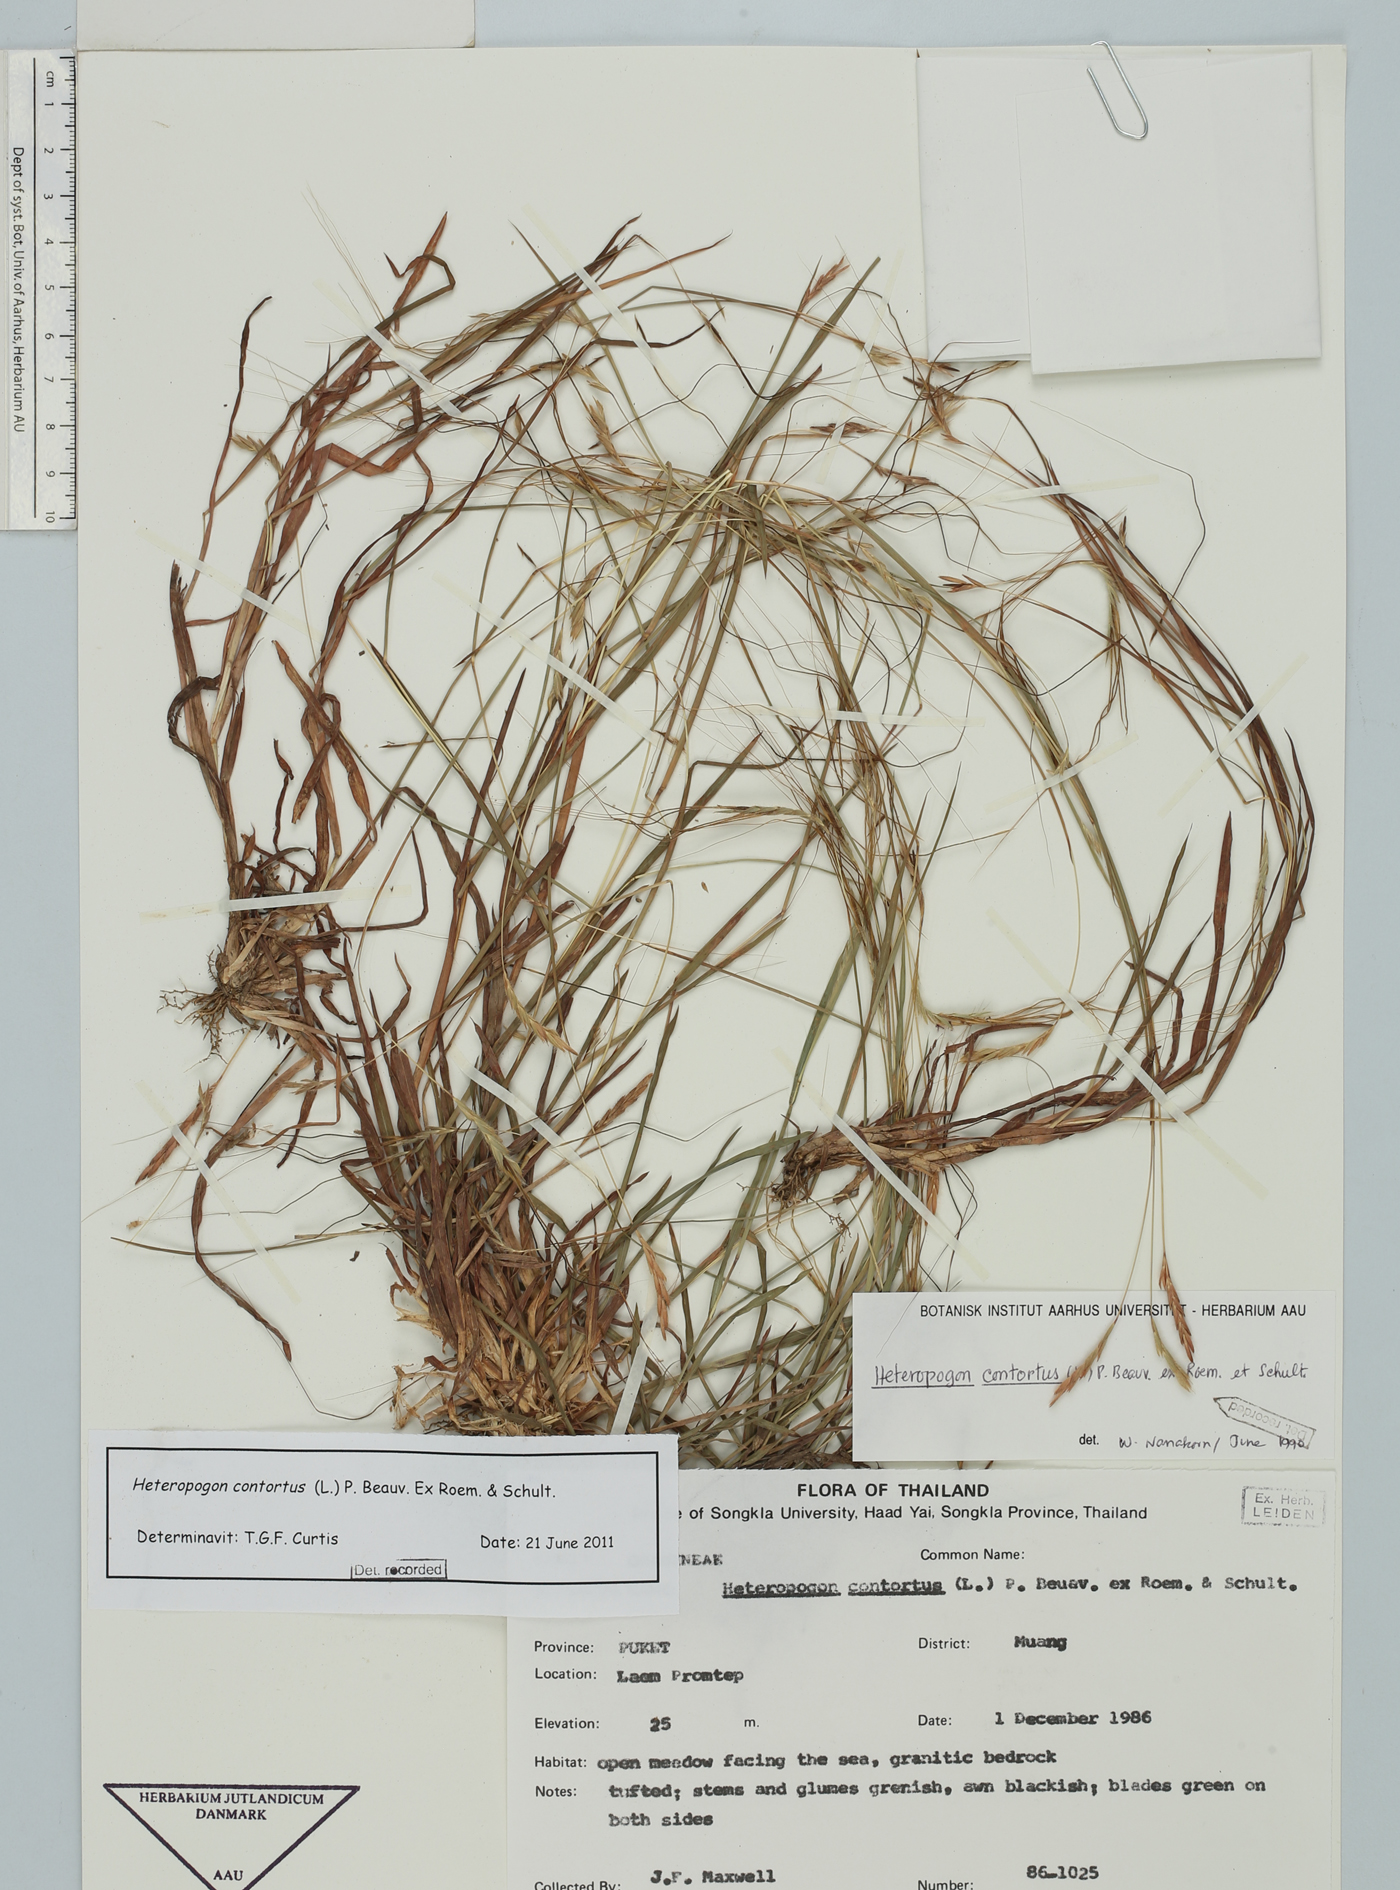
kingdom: Plantae
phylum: Tracheophyta
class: Liliopsida
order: Poales
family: Poaceae
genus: Heteropogon
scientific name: Heteropogon contortus
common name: Tanglehead
